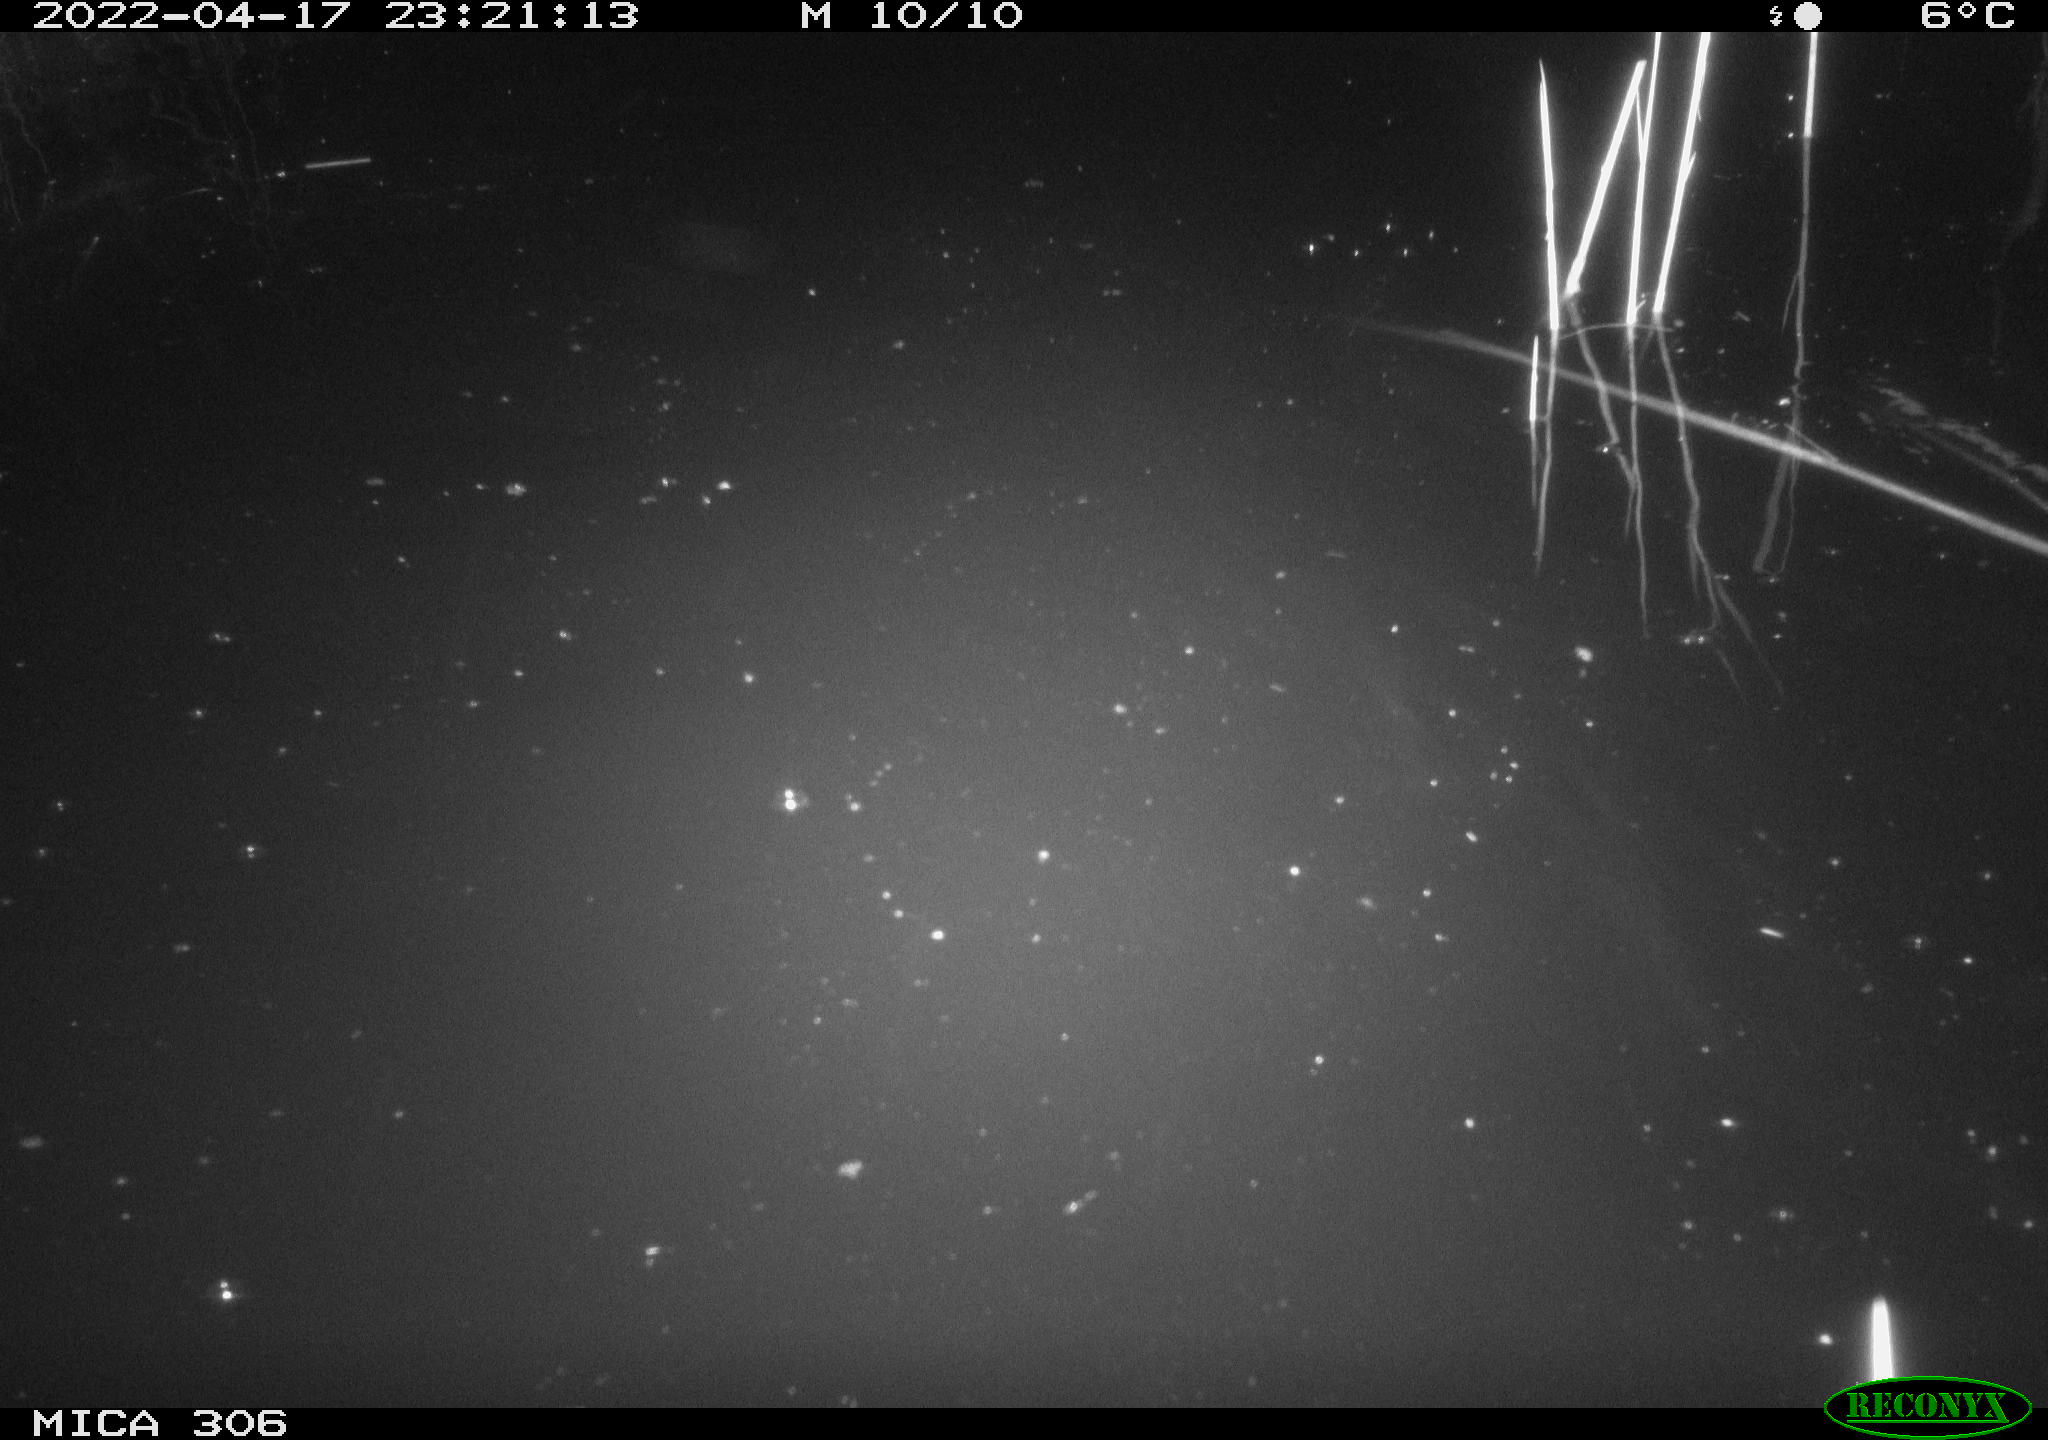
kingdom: Animalia
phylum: Chordata
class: Mammalia
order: Rodentia
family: Cricetidae
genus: Ondatra
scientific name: Ondatra zibethicus
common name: Muskrat
